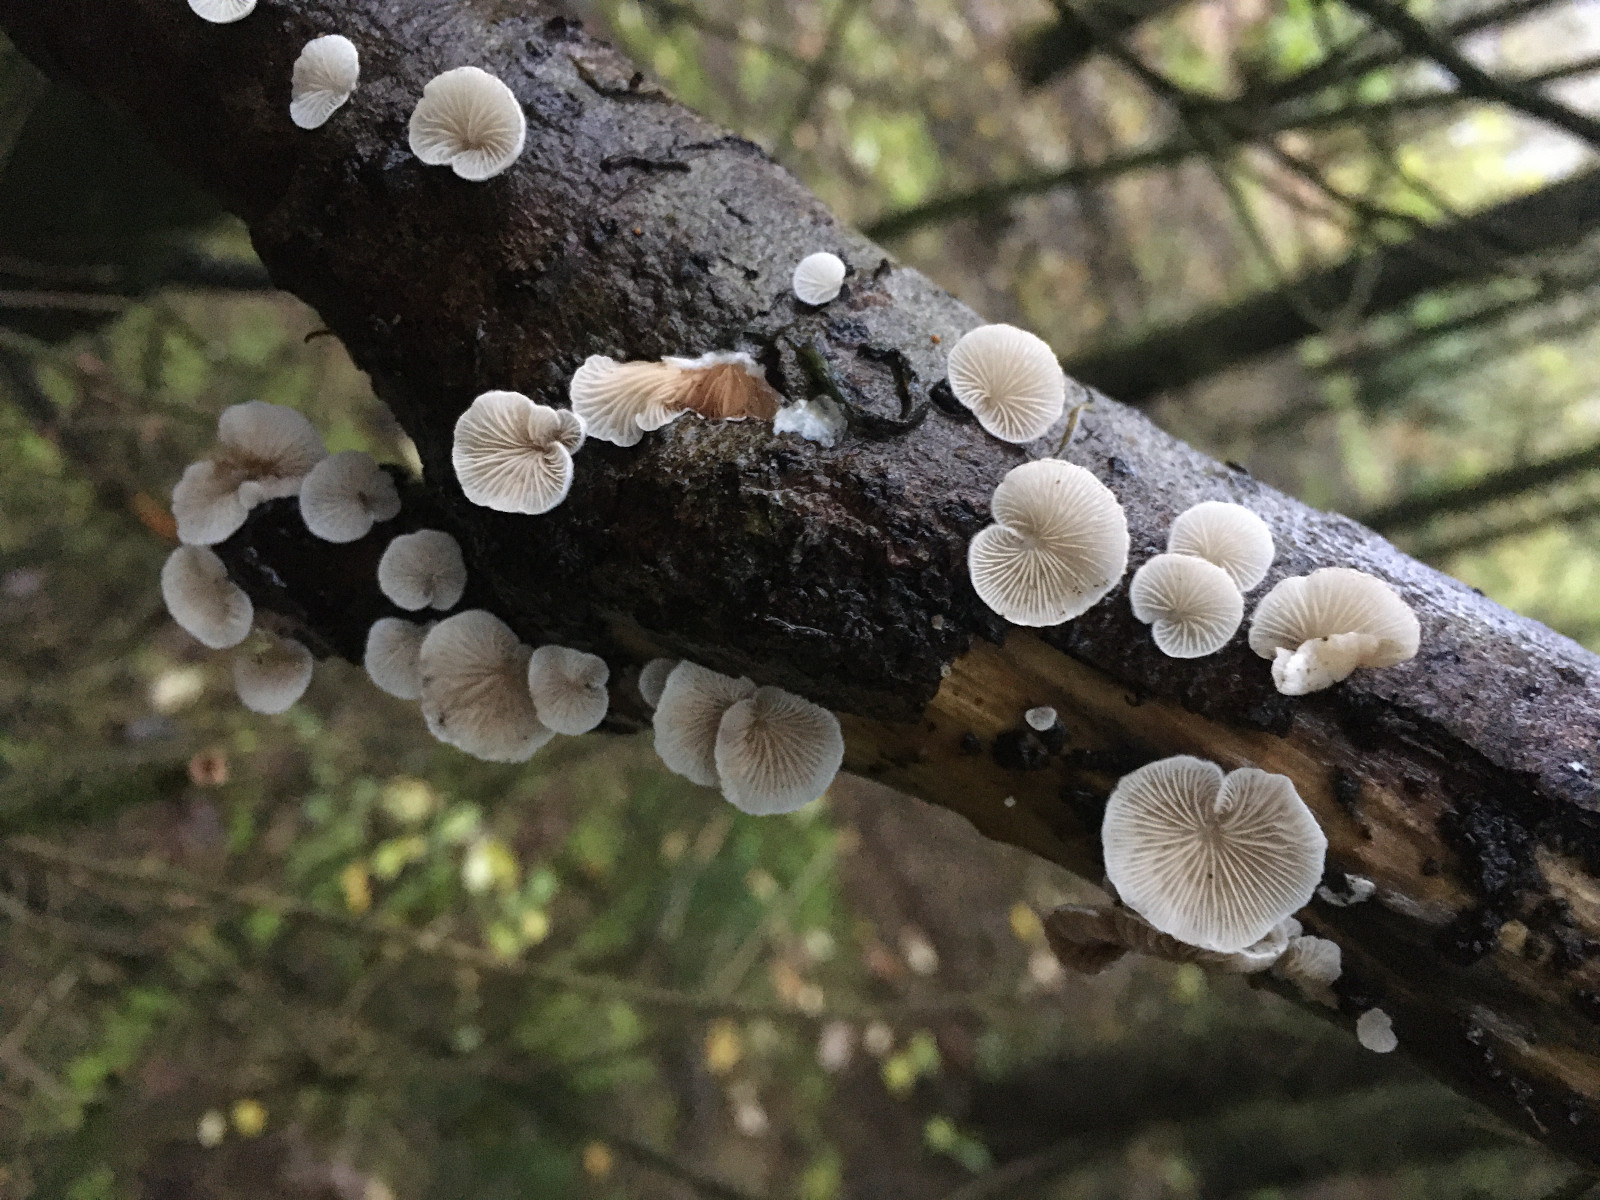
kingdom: Fungi
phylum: Basidiomycota
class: Agaricomycetes
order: Agaricales
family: Crepidotaceae
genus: Crepidotus
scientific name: Crepidotus
